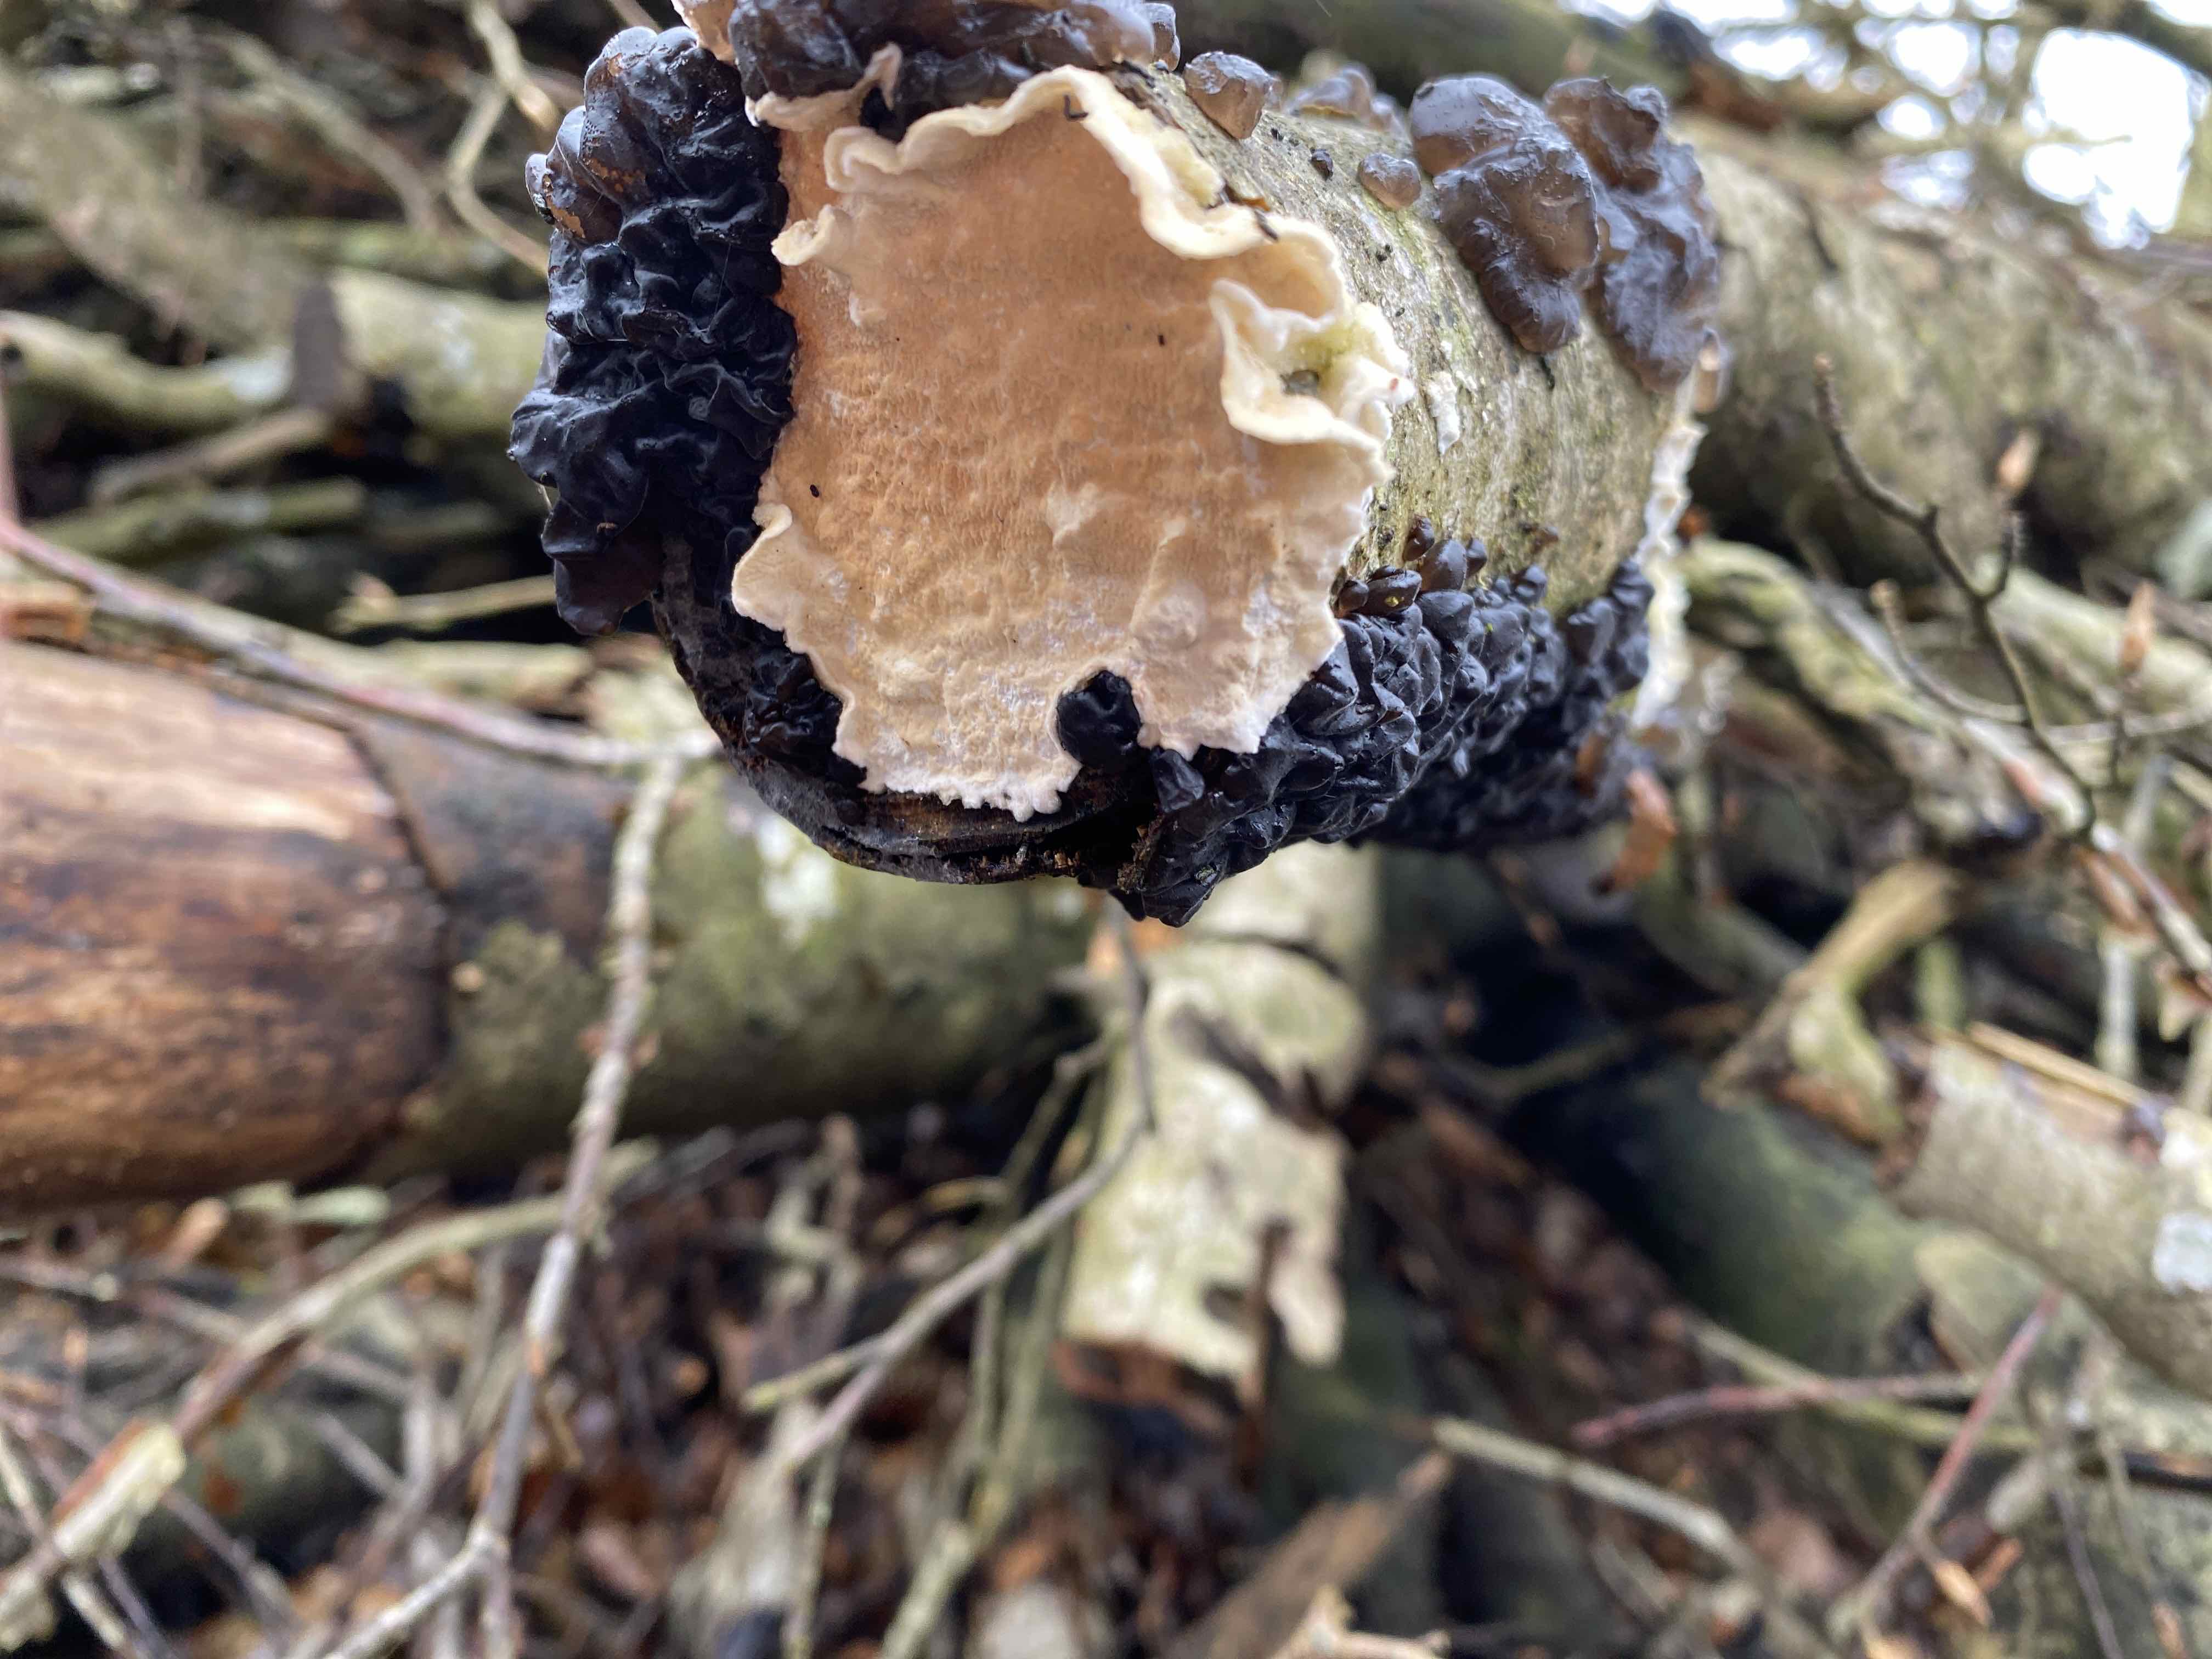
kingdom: Fungi
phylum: Basidiomycota
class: Agaricomycetes
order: Polyporales
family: Irpicaceae
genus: Byssomerulius
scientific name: Byssomerulius corium
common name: læder-åresvamp
